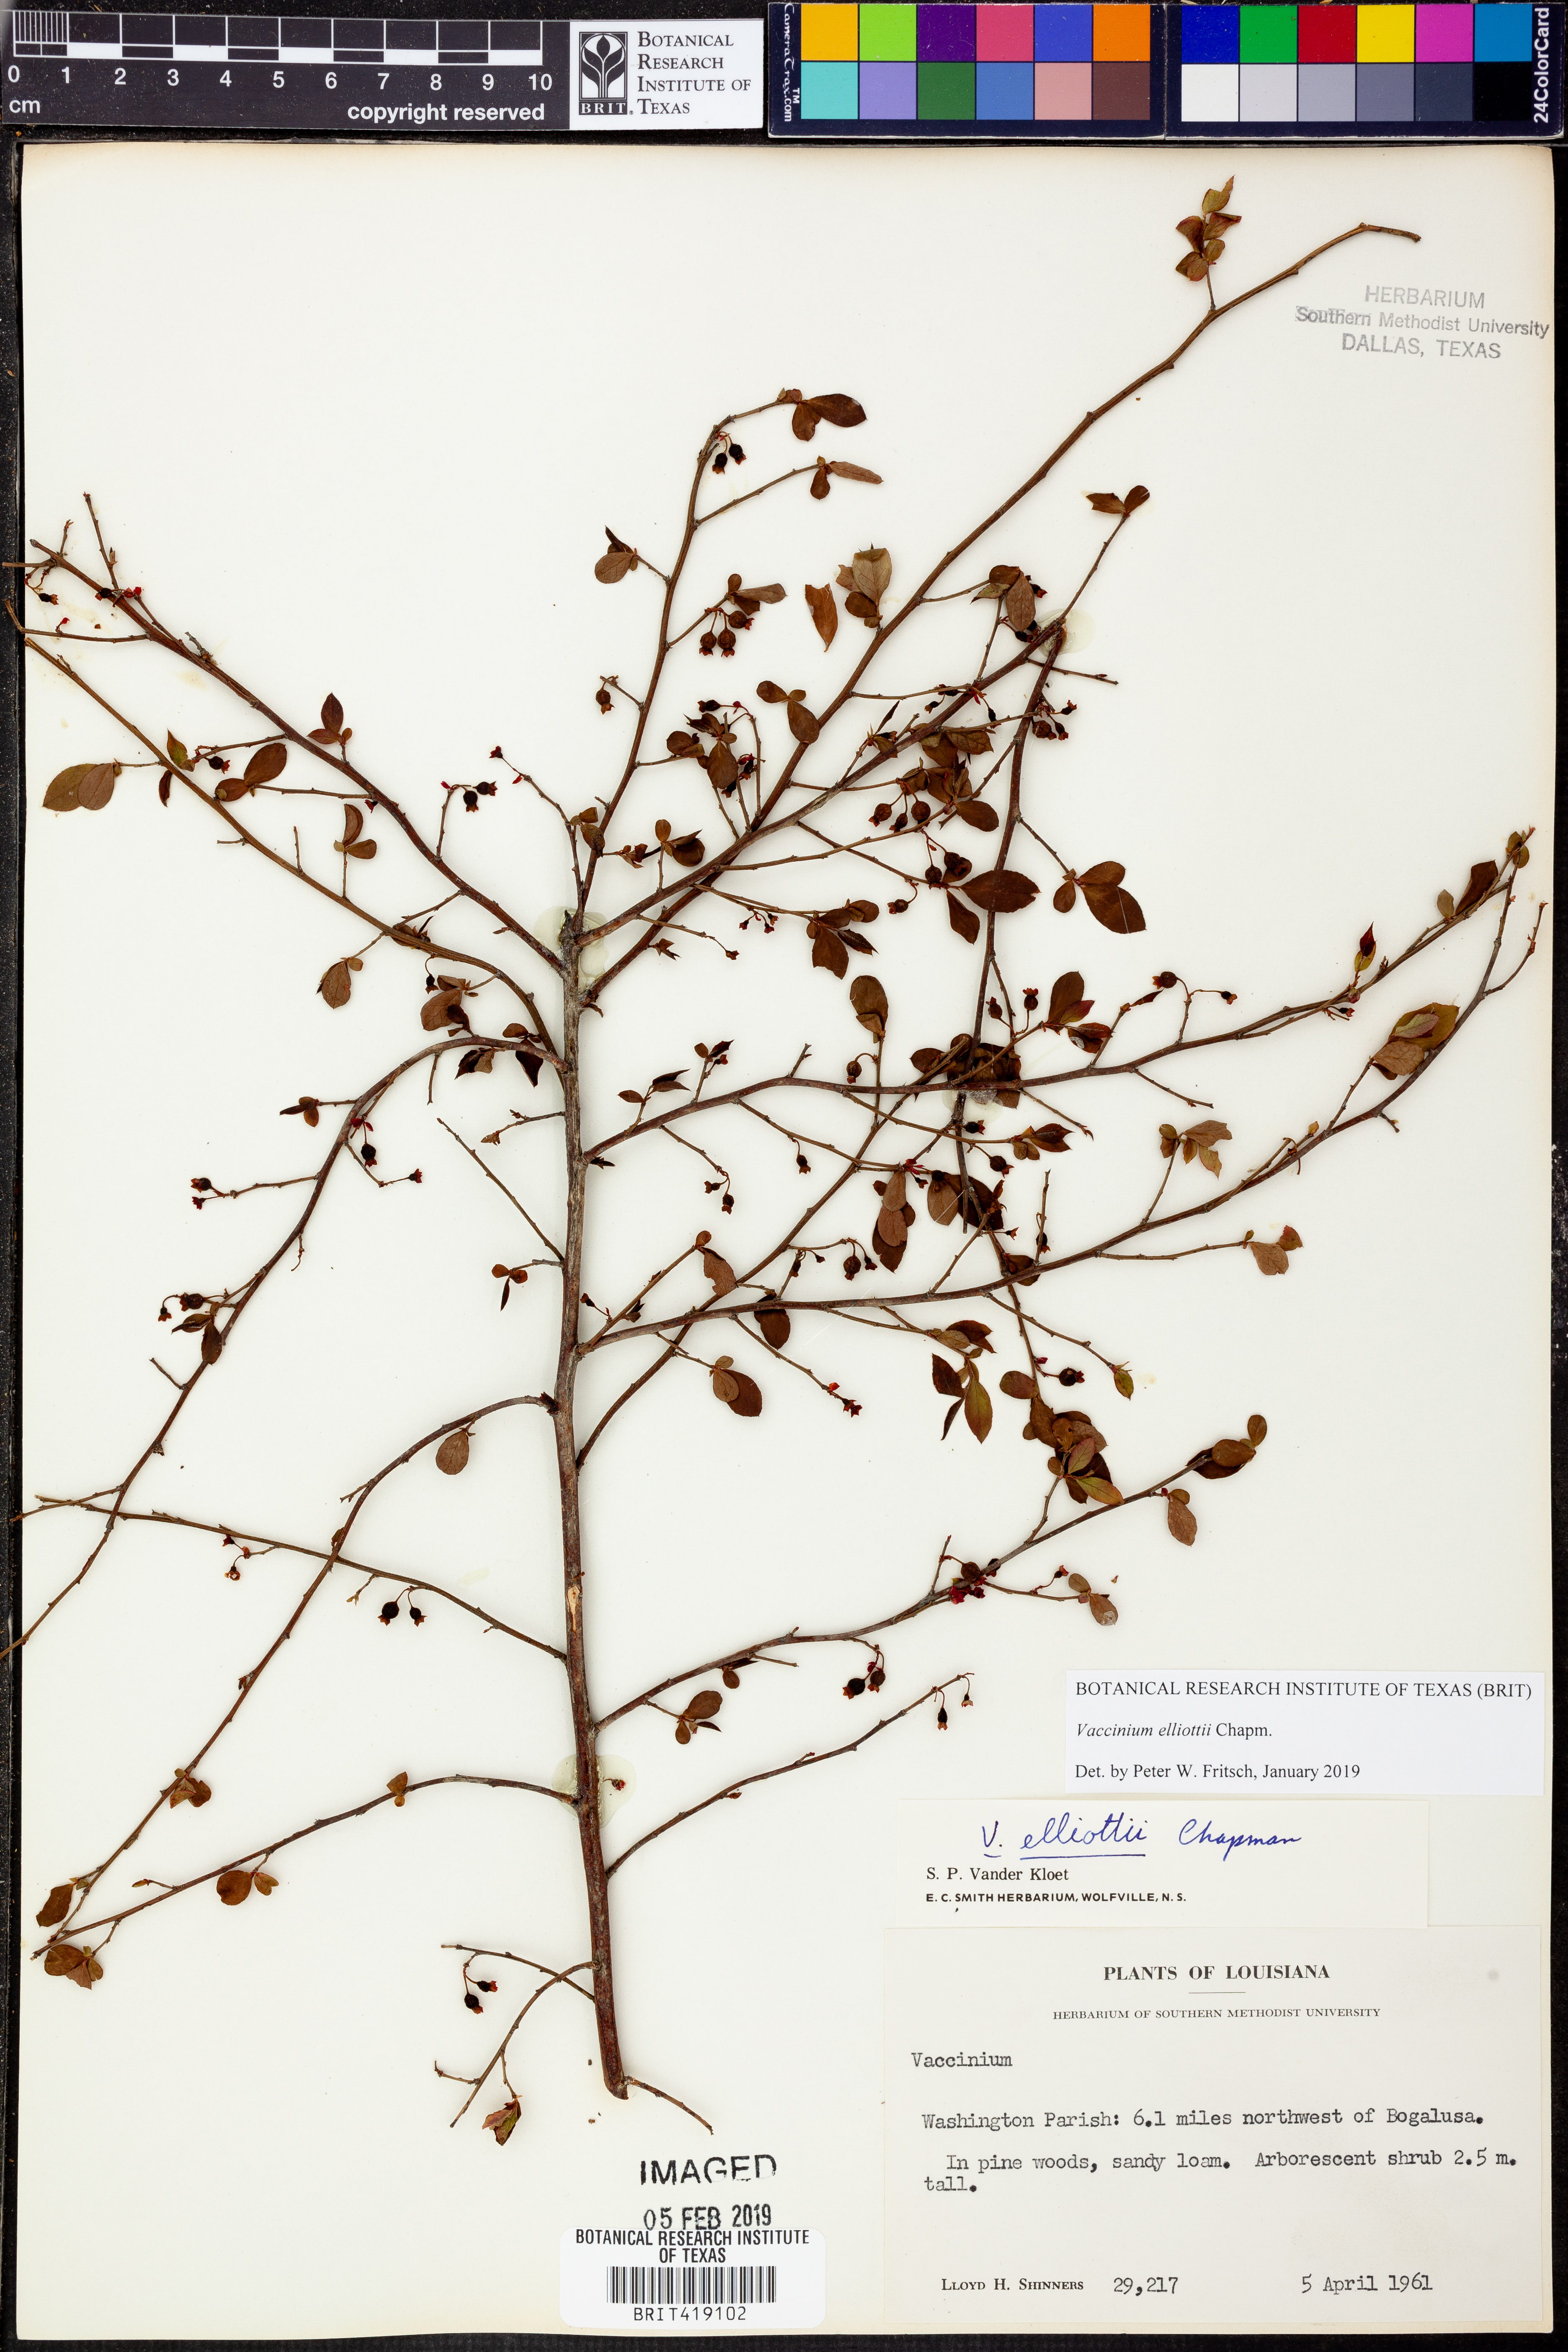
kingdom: Plantae
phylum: Tracheophyta
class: Magnoliopsida
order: Ericales
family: Ericaceae
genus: Vaccinium
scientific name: Vaccinium corymbosum
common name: Blueberry
